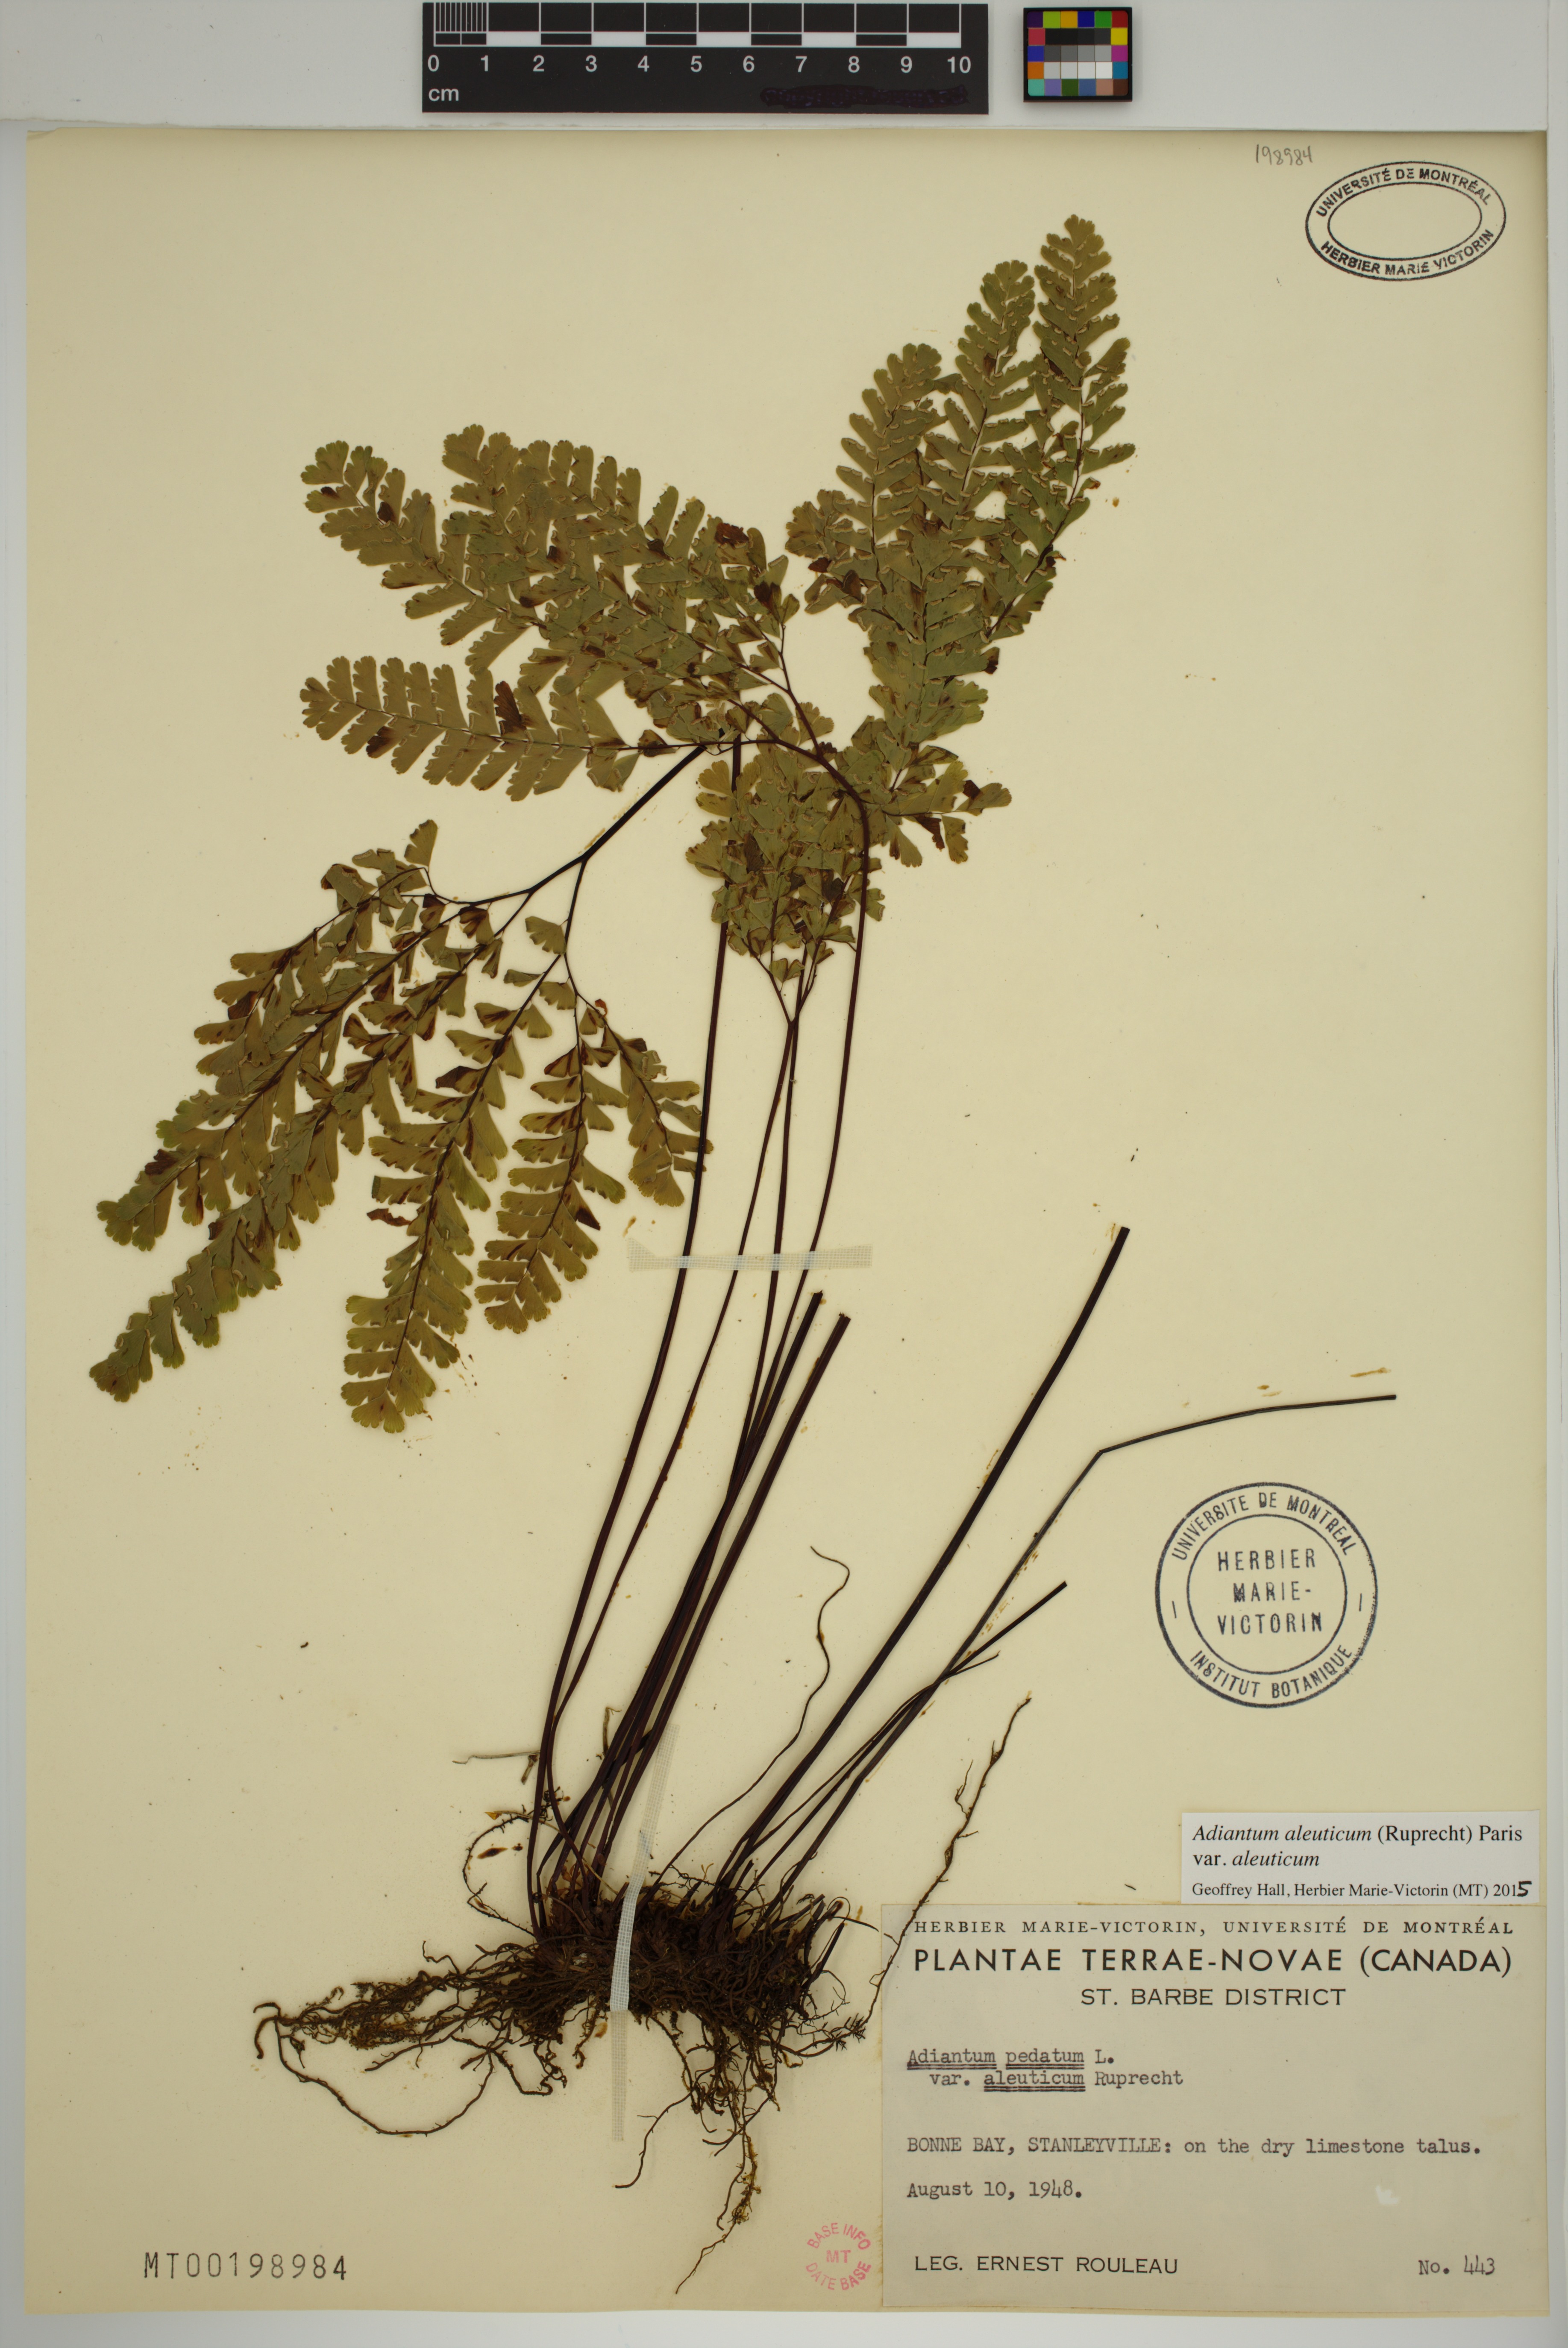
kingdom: Plantae
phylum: Tracheophyta
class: Polypodiopsida
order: Polypodiales
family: Pteridaceae
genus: Adiantum
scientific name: Adiantum aleuticum
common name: Aleutian maidenhair fern
